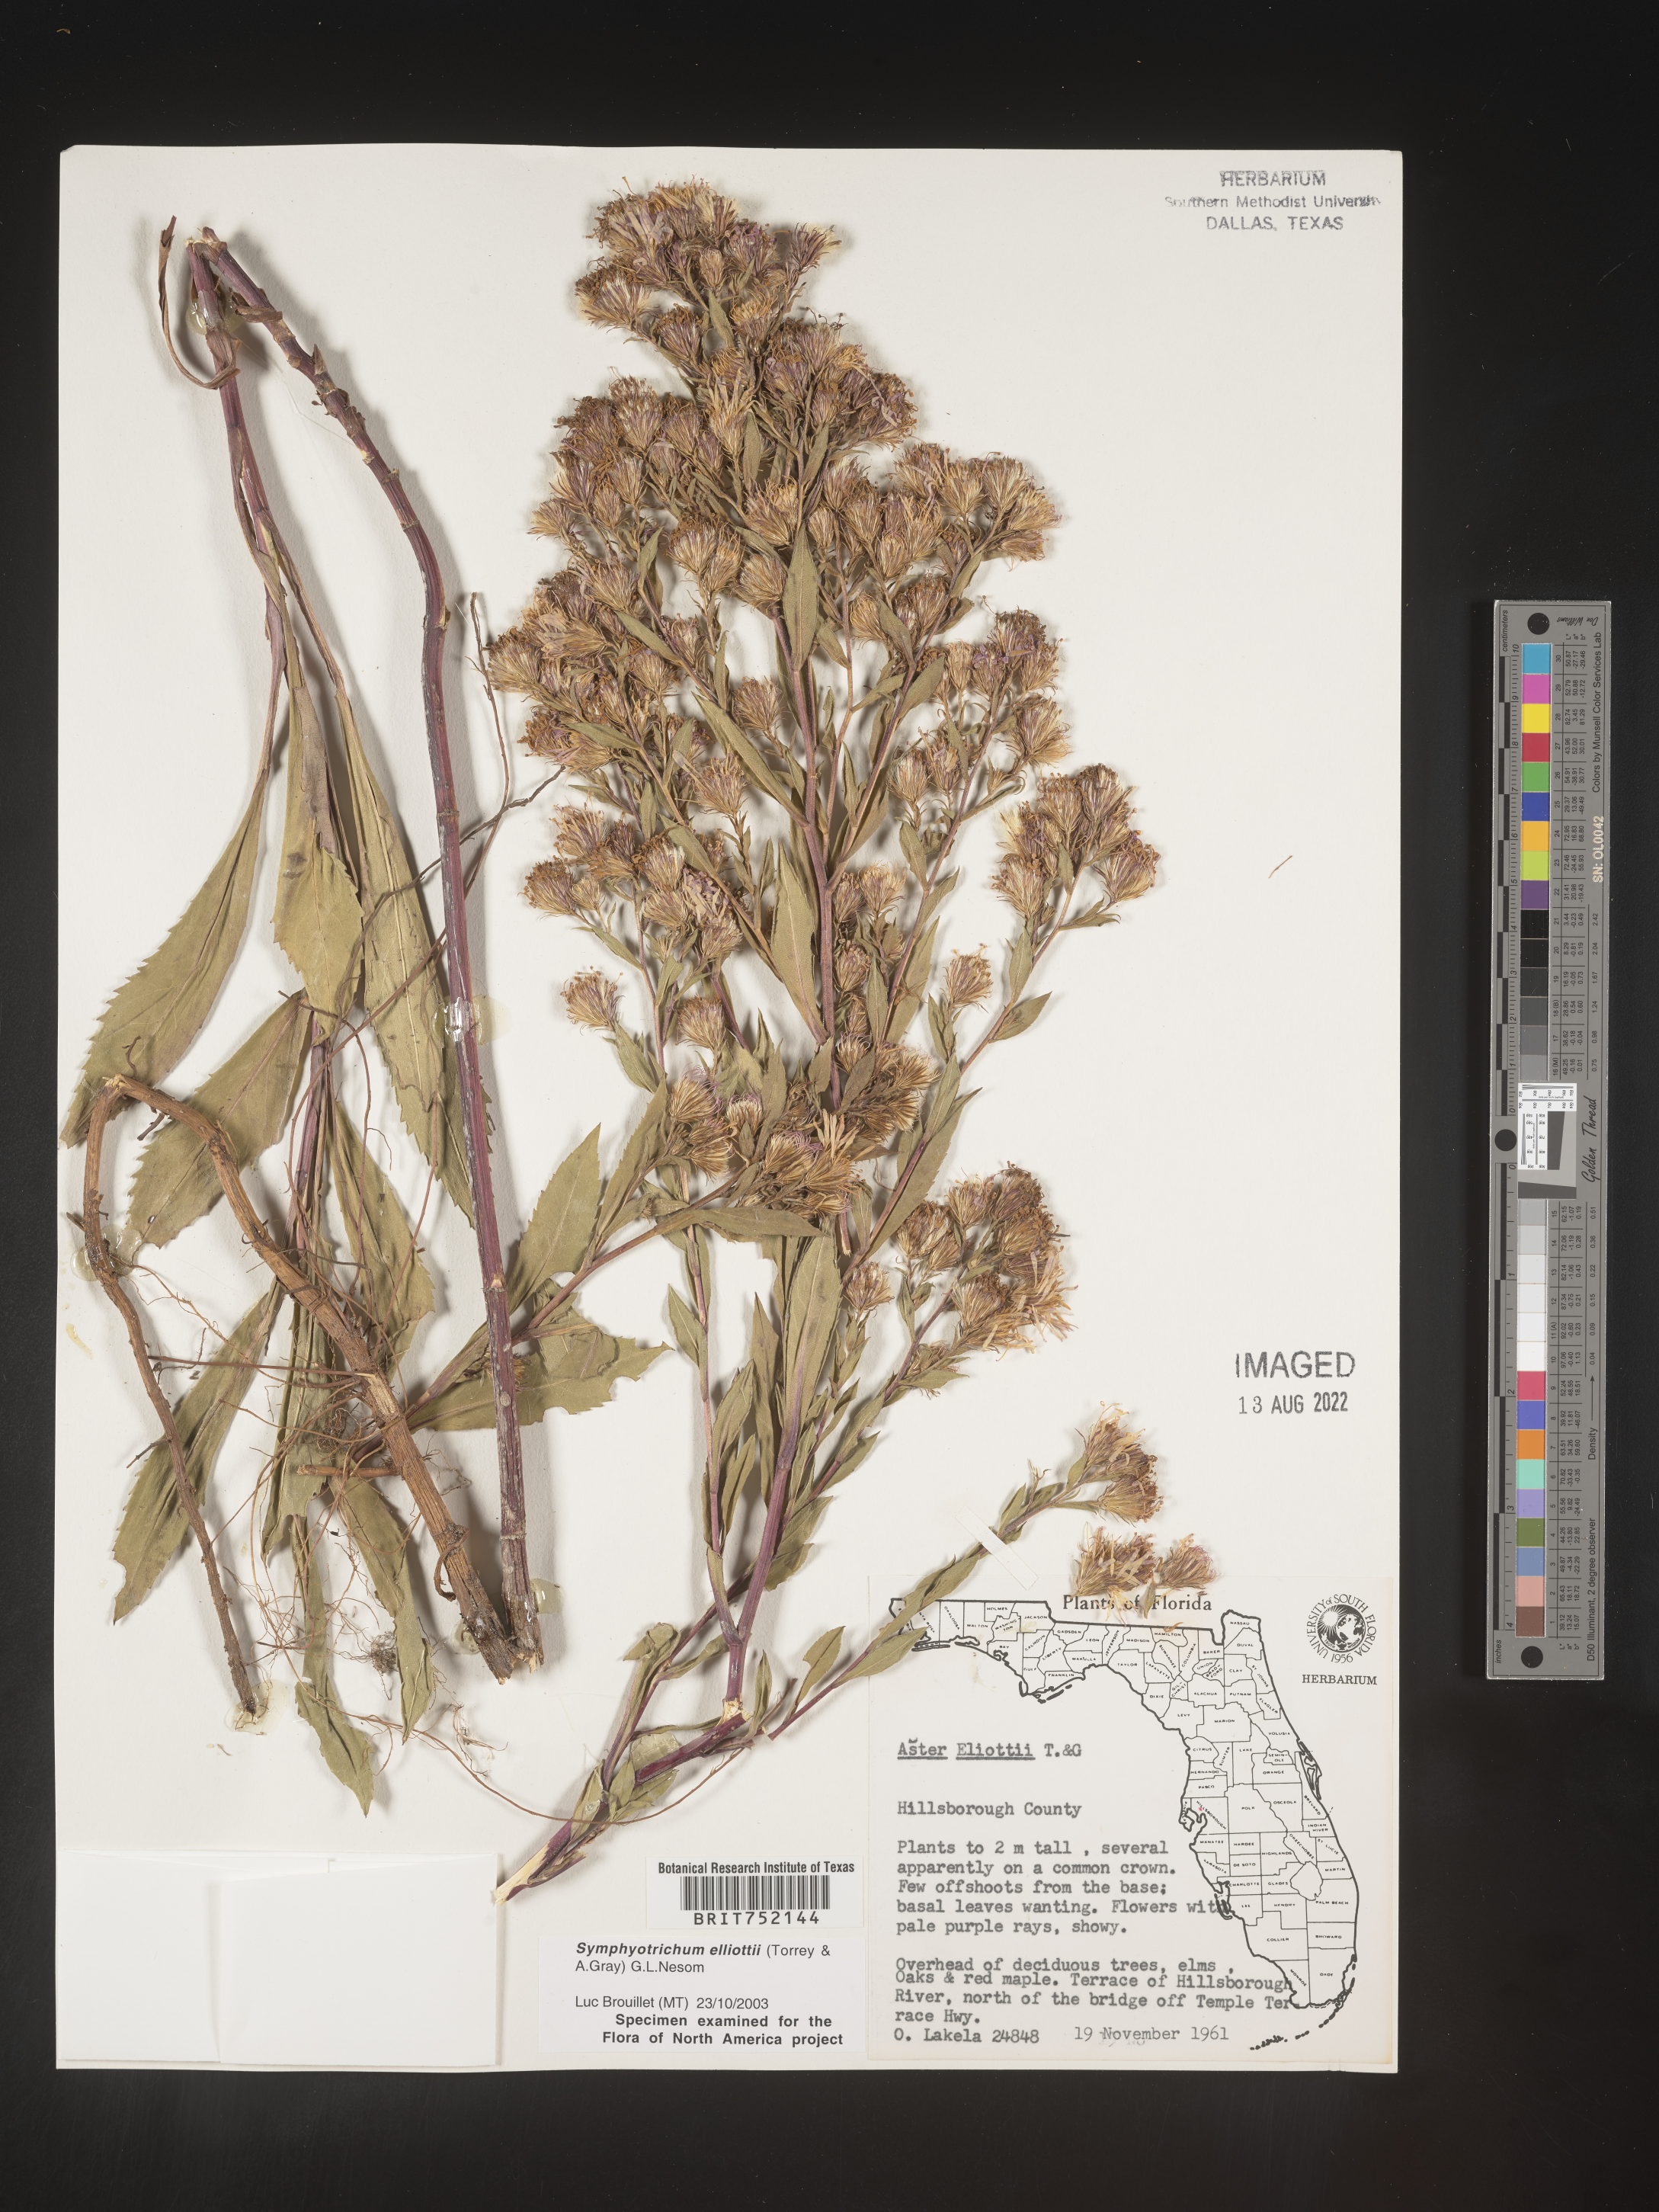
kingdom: Plantae
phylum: Tracheophyta
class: Magnoliopsida
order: Asterales
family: Asteraceae
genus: Symphyotrichum
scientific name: Symphyotrichum elliottii
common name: Southern swamp aster
